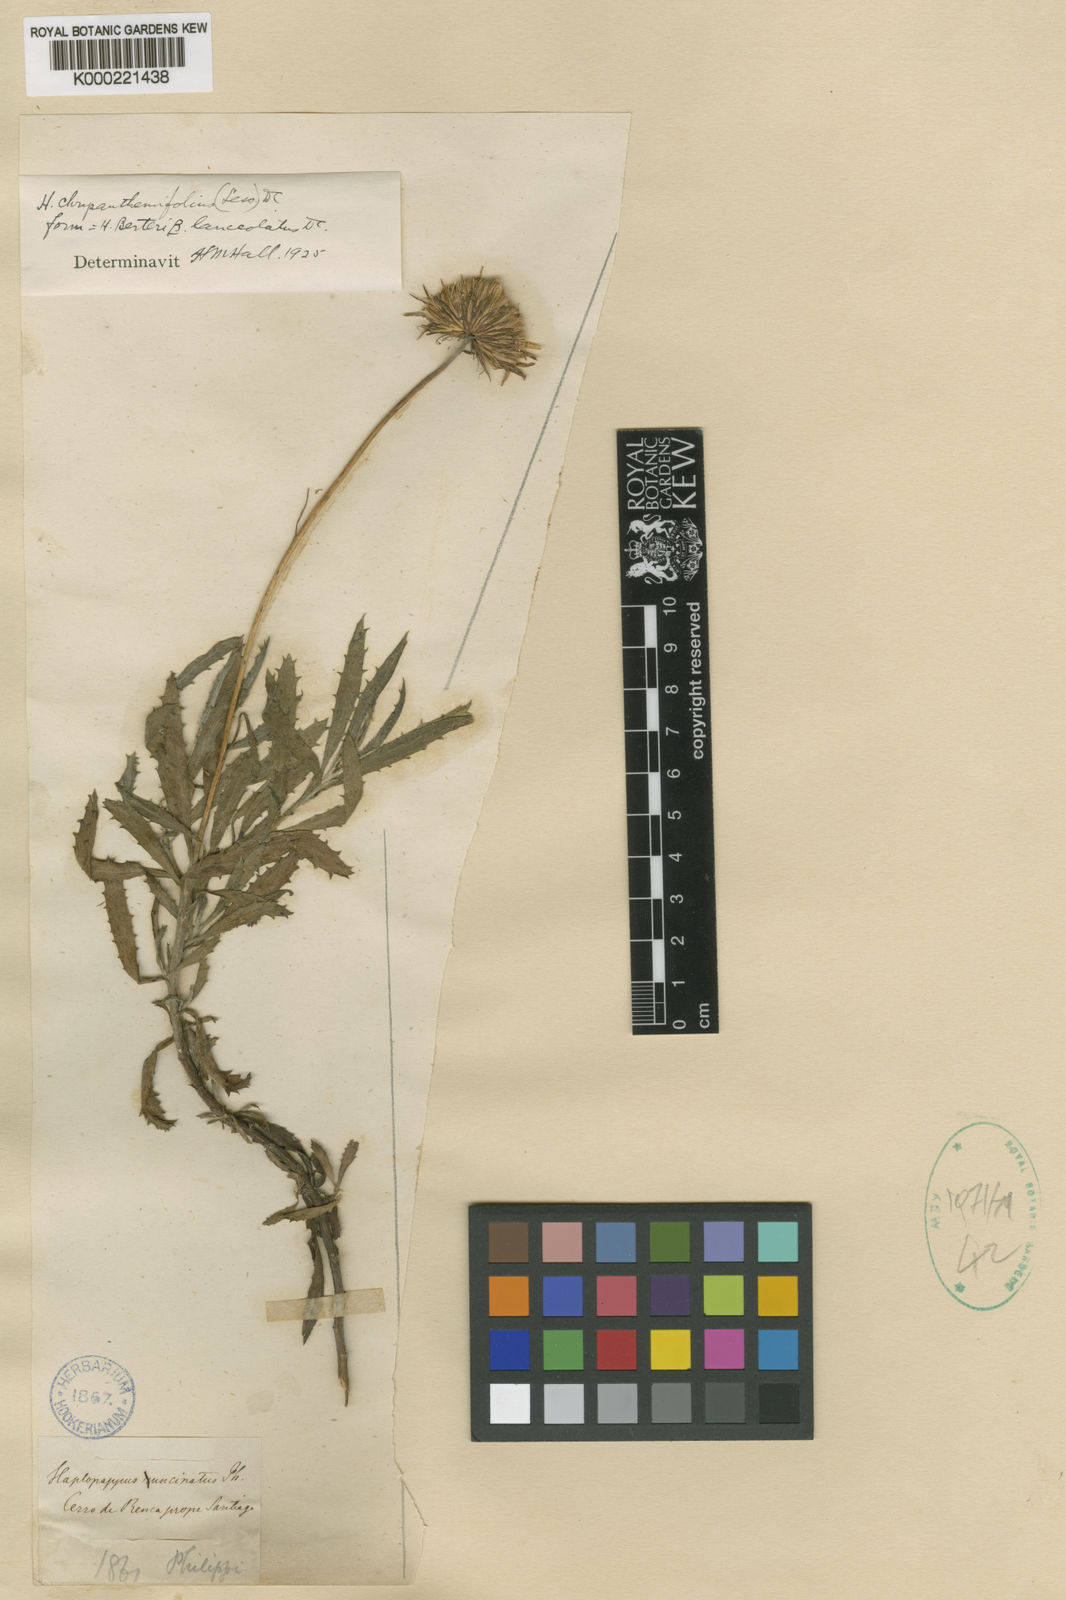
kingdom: Plantae
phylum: Tracheophyta
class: Magnoliopsida
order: Asterales
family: Asteraceae
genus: Haplopappus
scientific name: Haplopappus chrysanthemifolius
